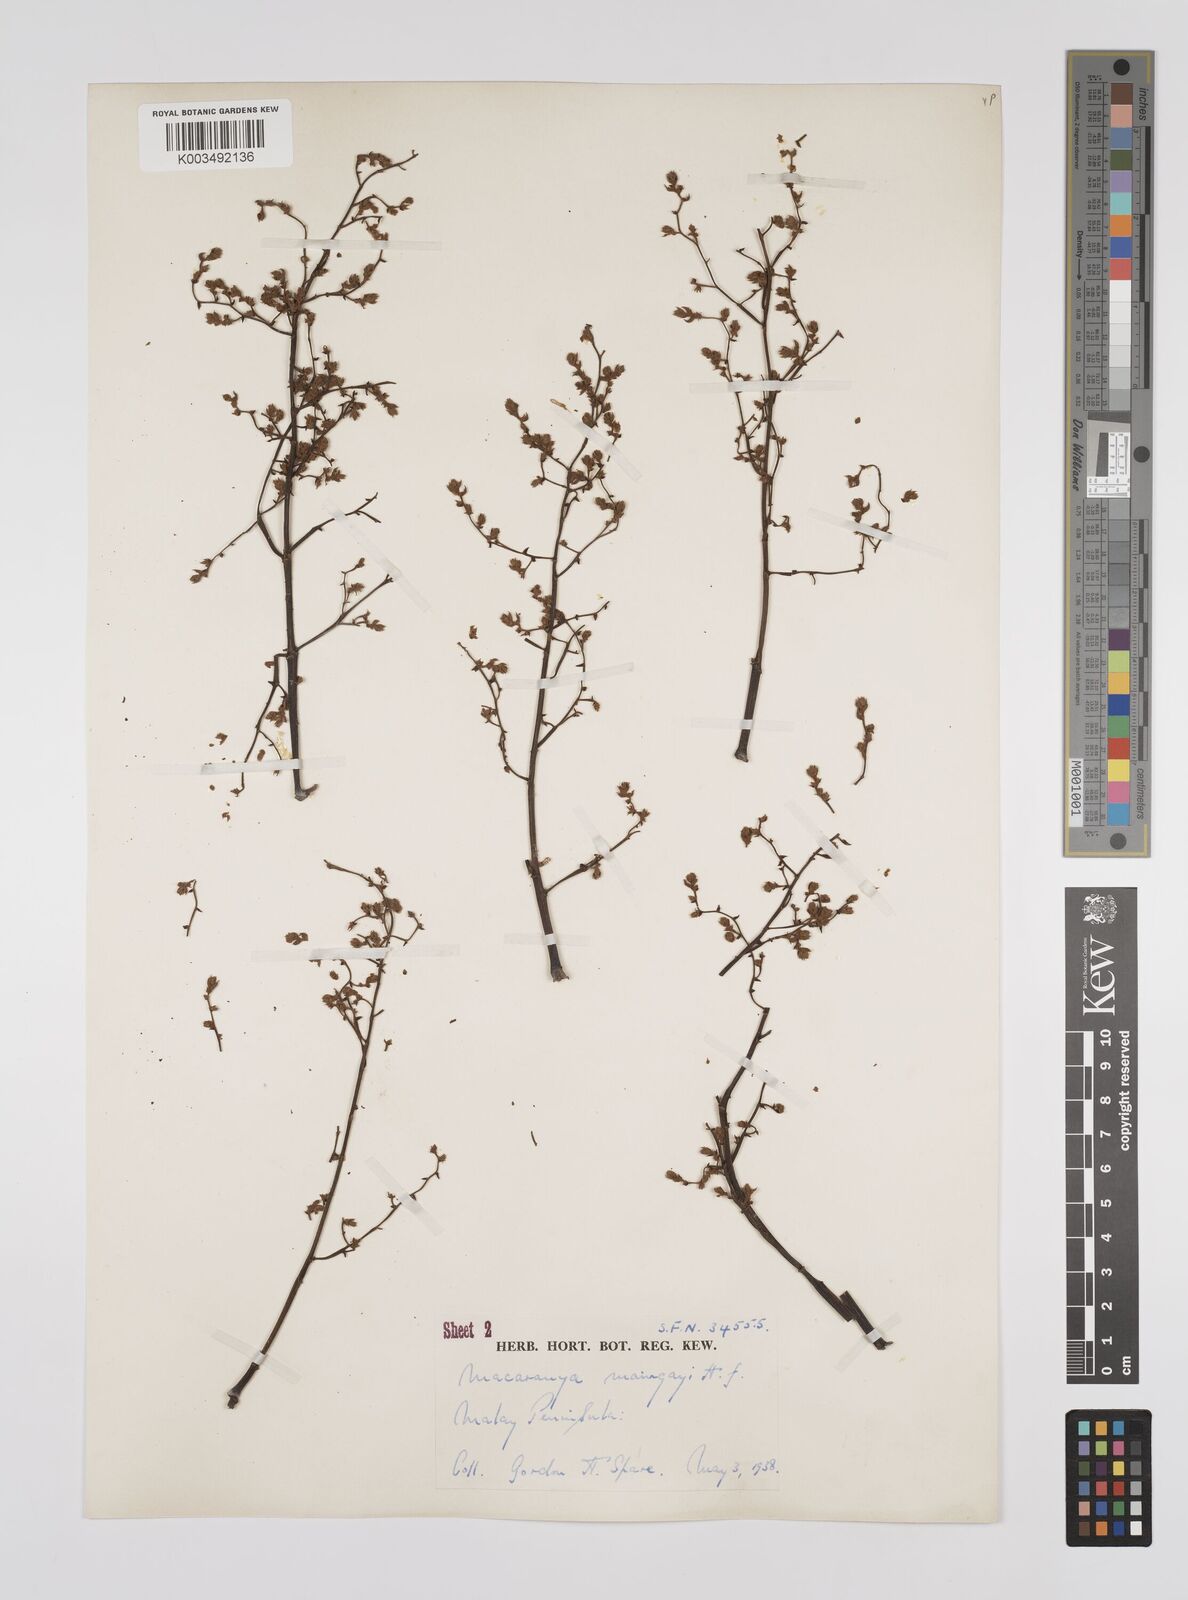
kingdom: Plantae
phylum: Tracheophyta
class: Magnoliopsida
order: Malpighiales
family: Euphorbiaceae
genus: Macaranga
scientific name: Macaranga pruinosa
